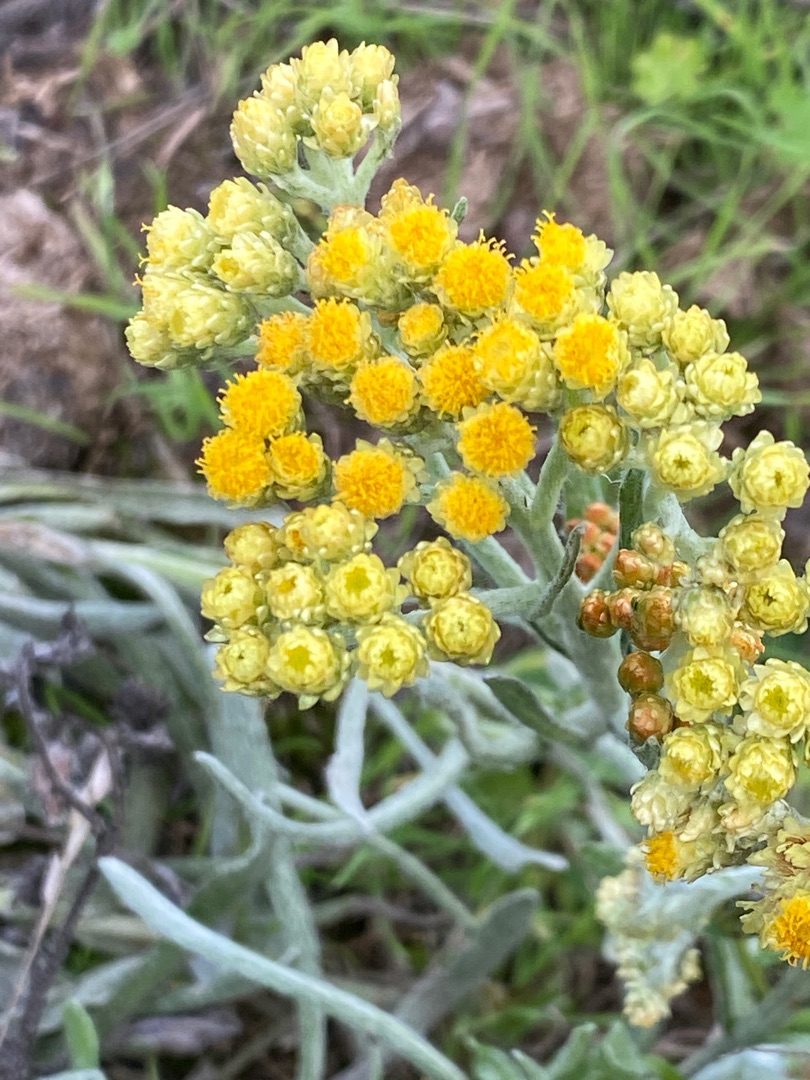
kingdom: Plantae
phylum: Tracheophyta
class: Magnoliopsida
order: Asterales
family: Asteraceae
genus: Helichrysum
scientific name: Helichrysum arenarium
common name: Gul evighedsblomst
